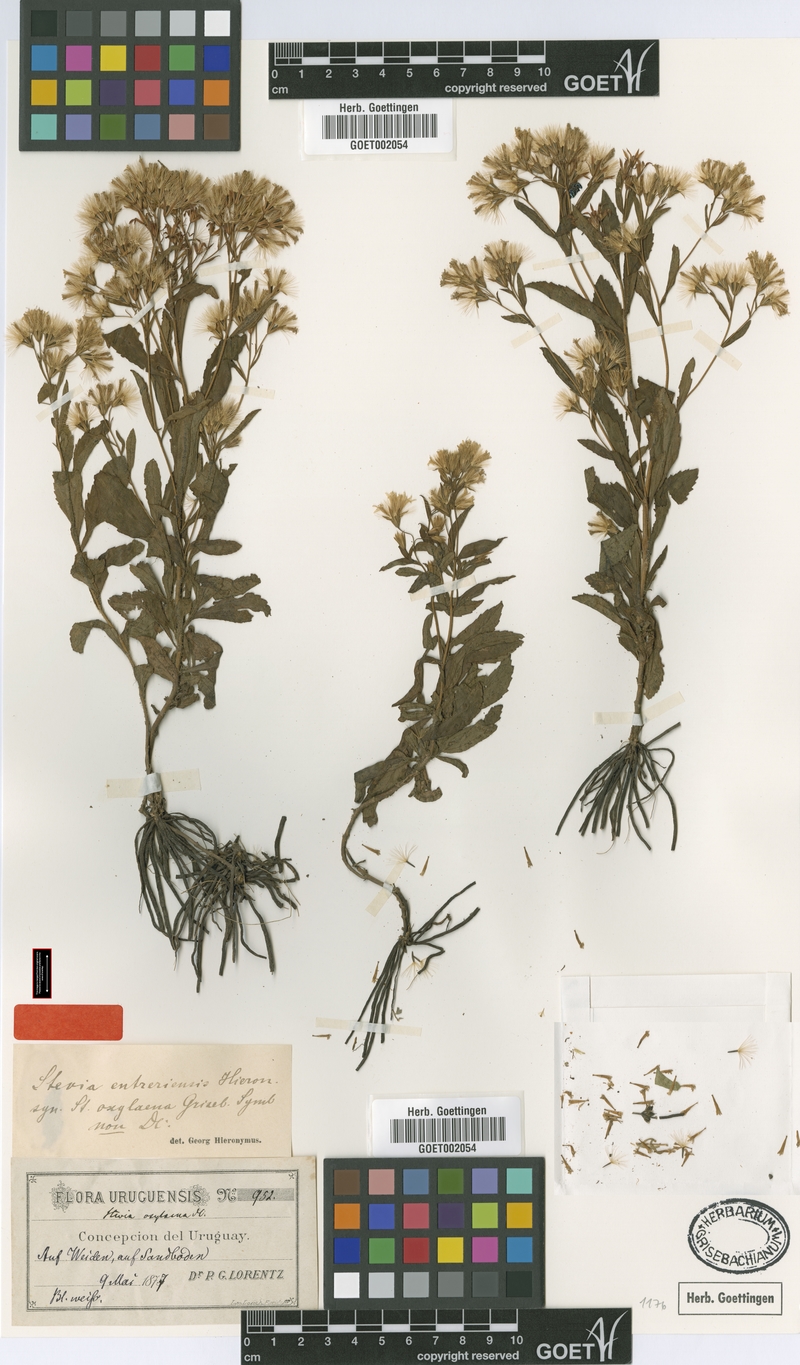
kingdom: Plantae
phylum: Tracheophyta
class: Magnoliopsida
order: Asterales
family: Asteraceae
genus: Stevia
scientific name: Stevia entreriensis
